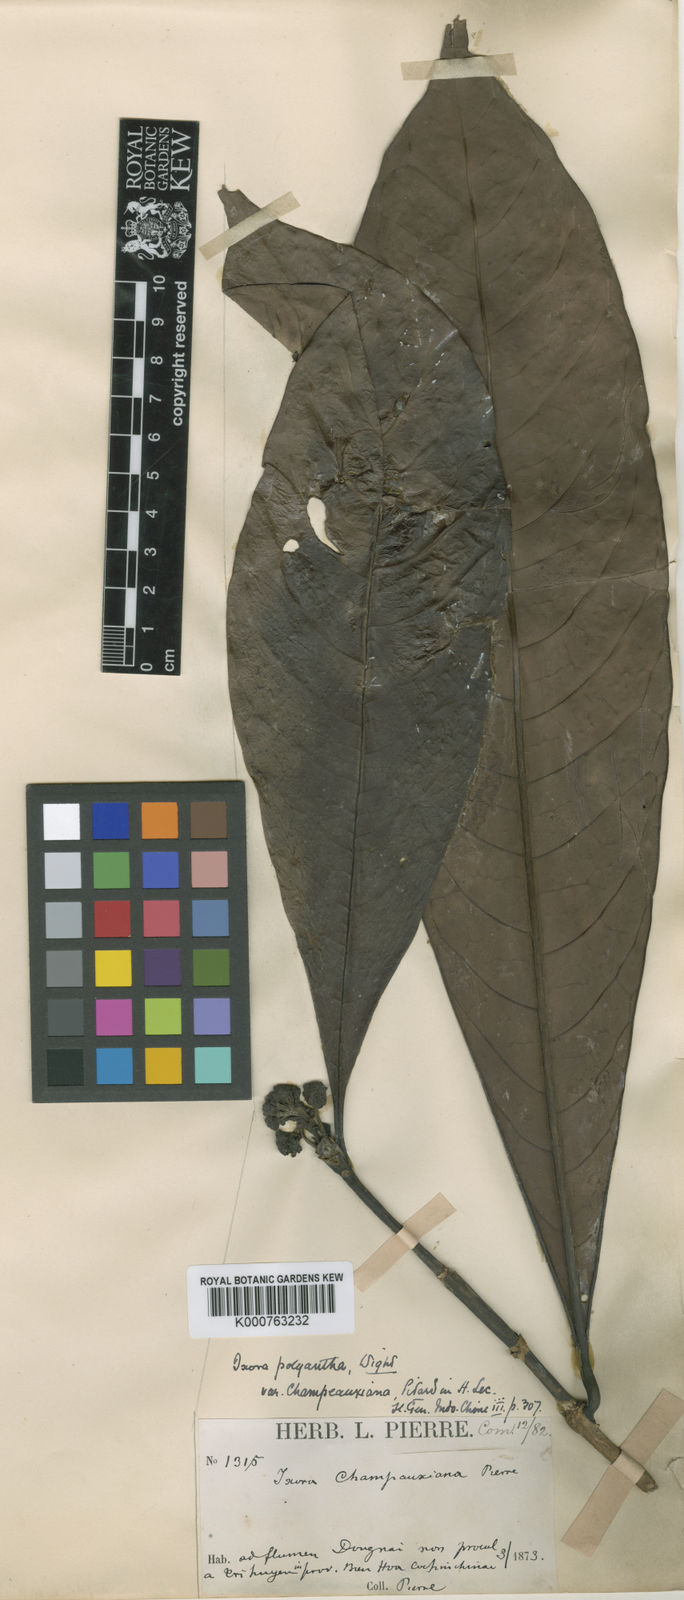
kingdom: Plantae
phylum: Tracheophyta
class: Magnoliopsida
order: Gentianales
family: Rubiaceae
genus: Ixora
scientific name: Ixora polyantha
